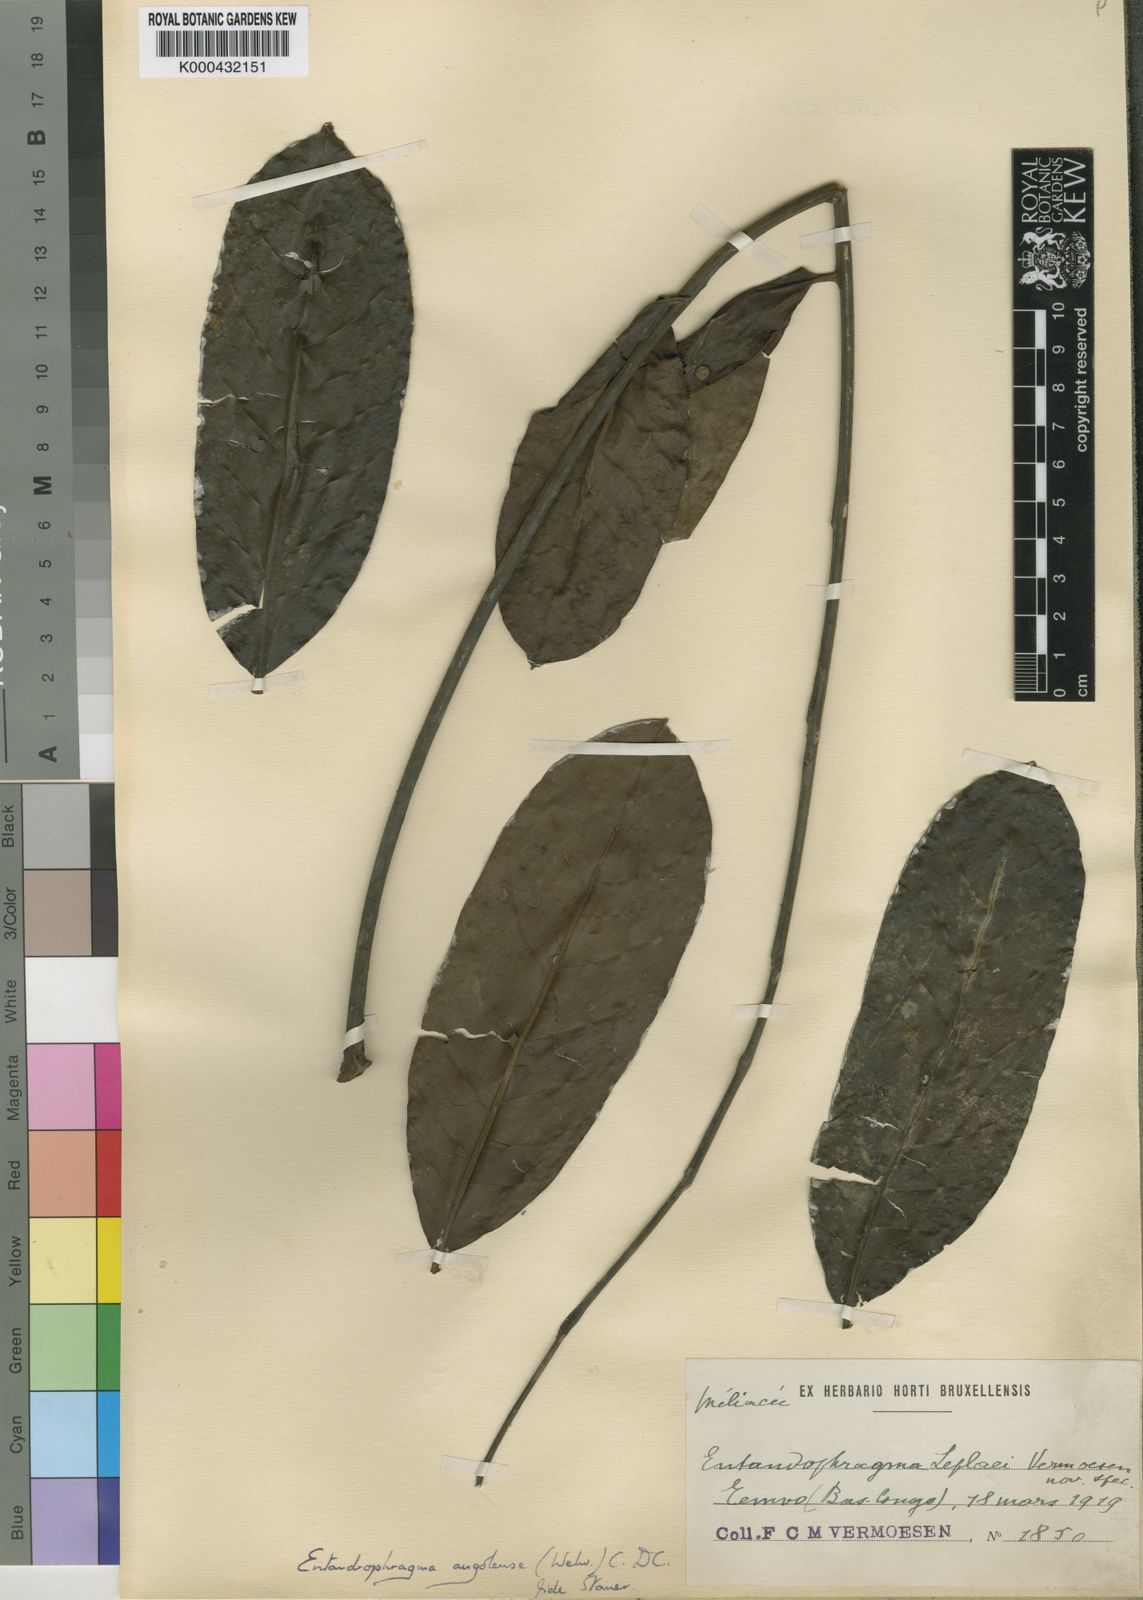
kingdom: Plantae
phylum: Tracheophyta
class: Magnoliopsida
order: Sapindales
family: Meliaceae
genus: Entandrophragma
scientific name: Entandrophragma
